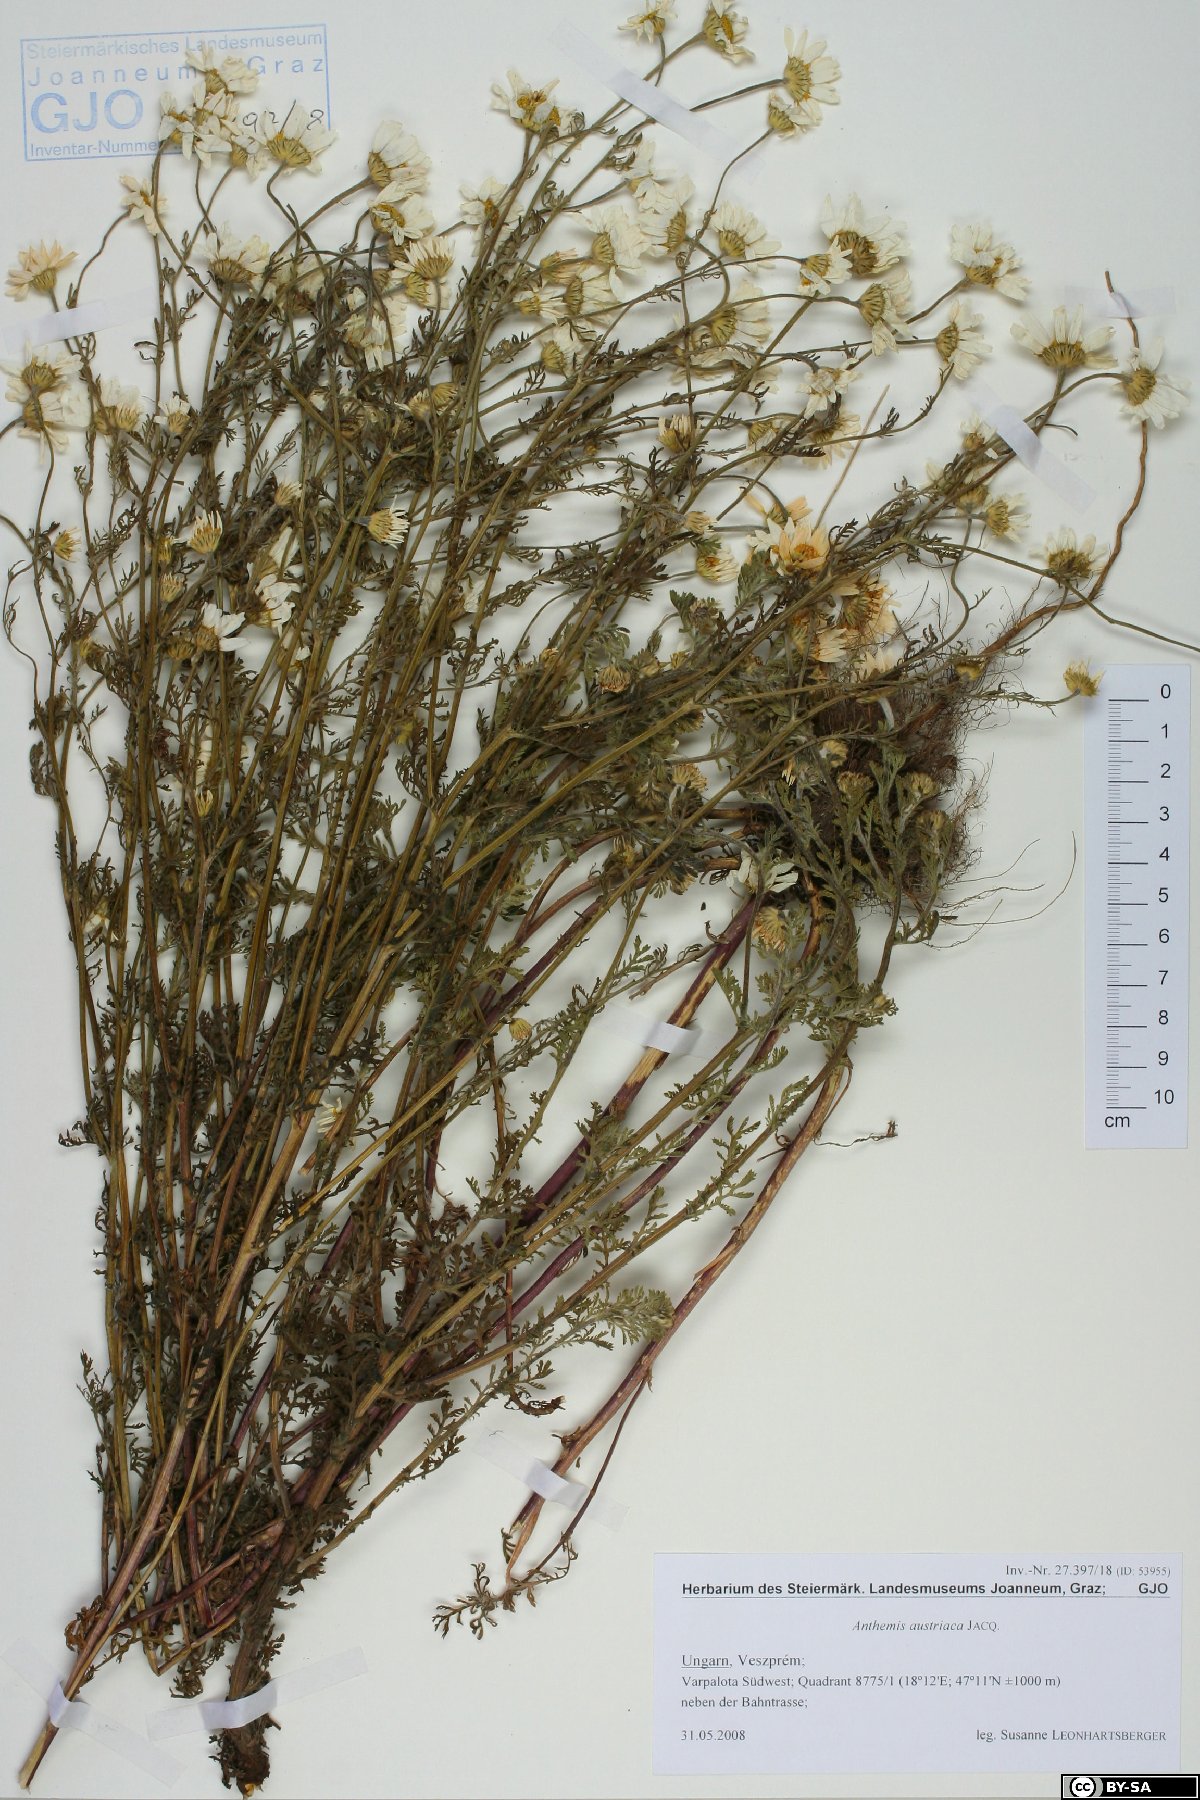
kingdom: Plantae
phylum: Tracheophyta
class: Magnoliopsida
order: Asterales
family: Asteraceae
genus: Cota
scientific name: Cota austriaca
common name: Austrian chamomile
